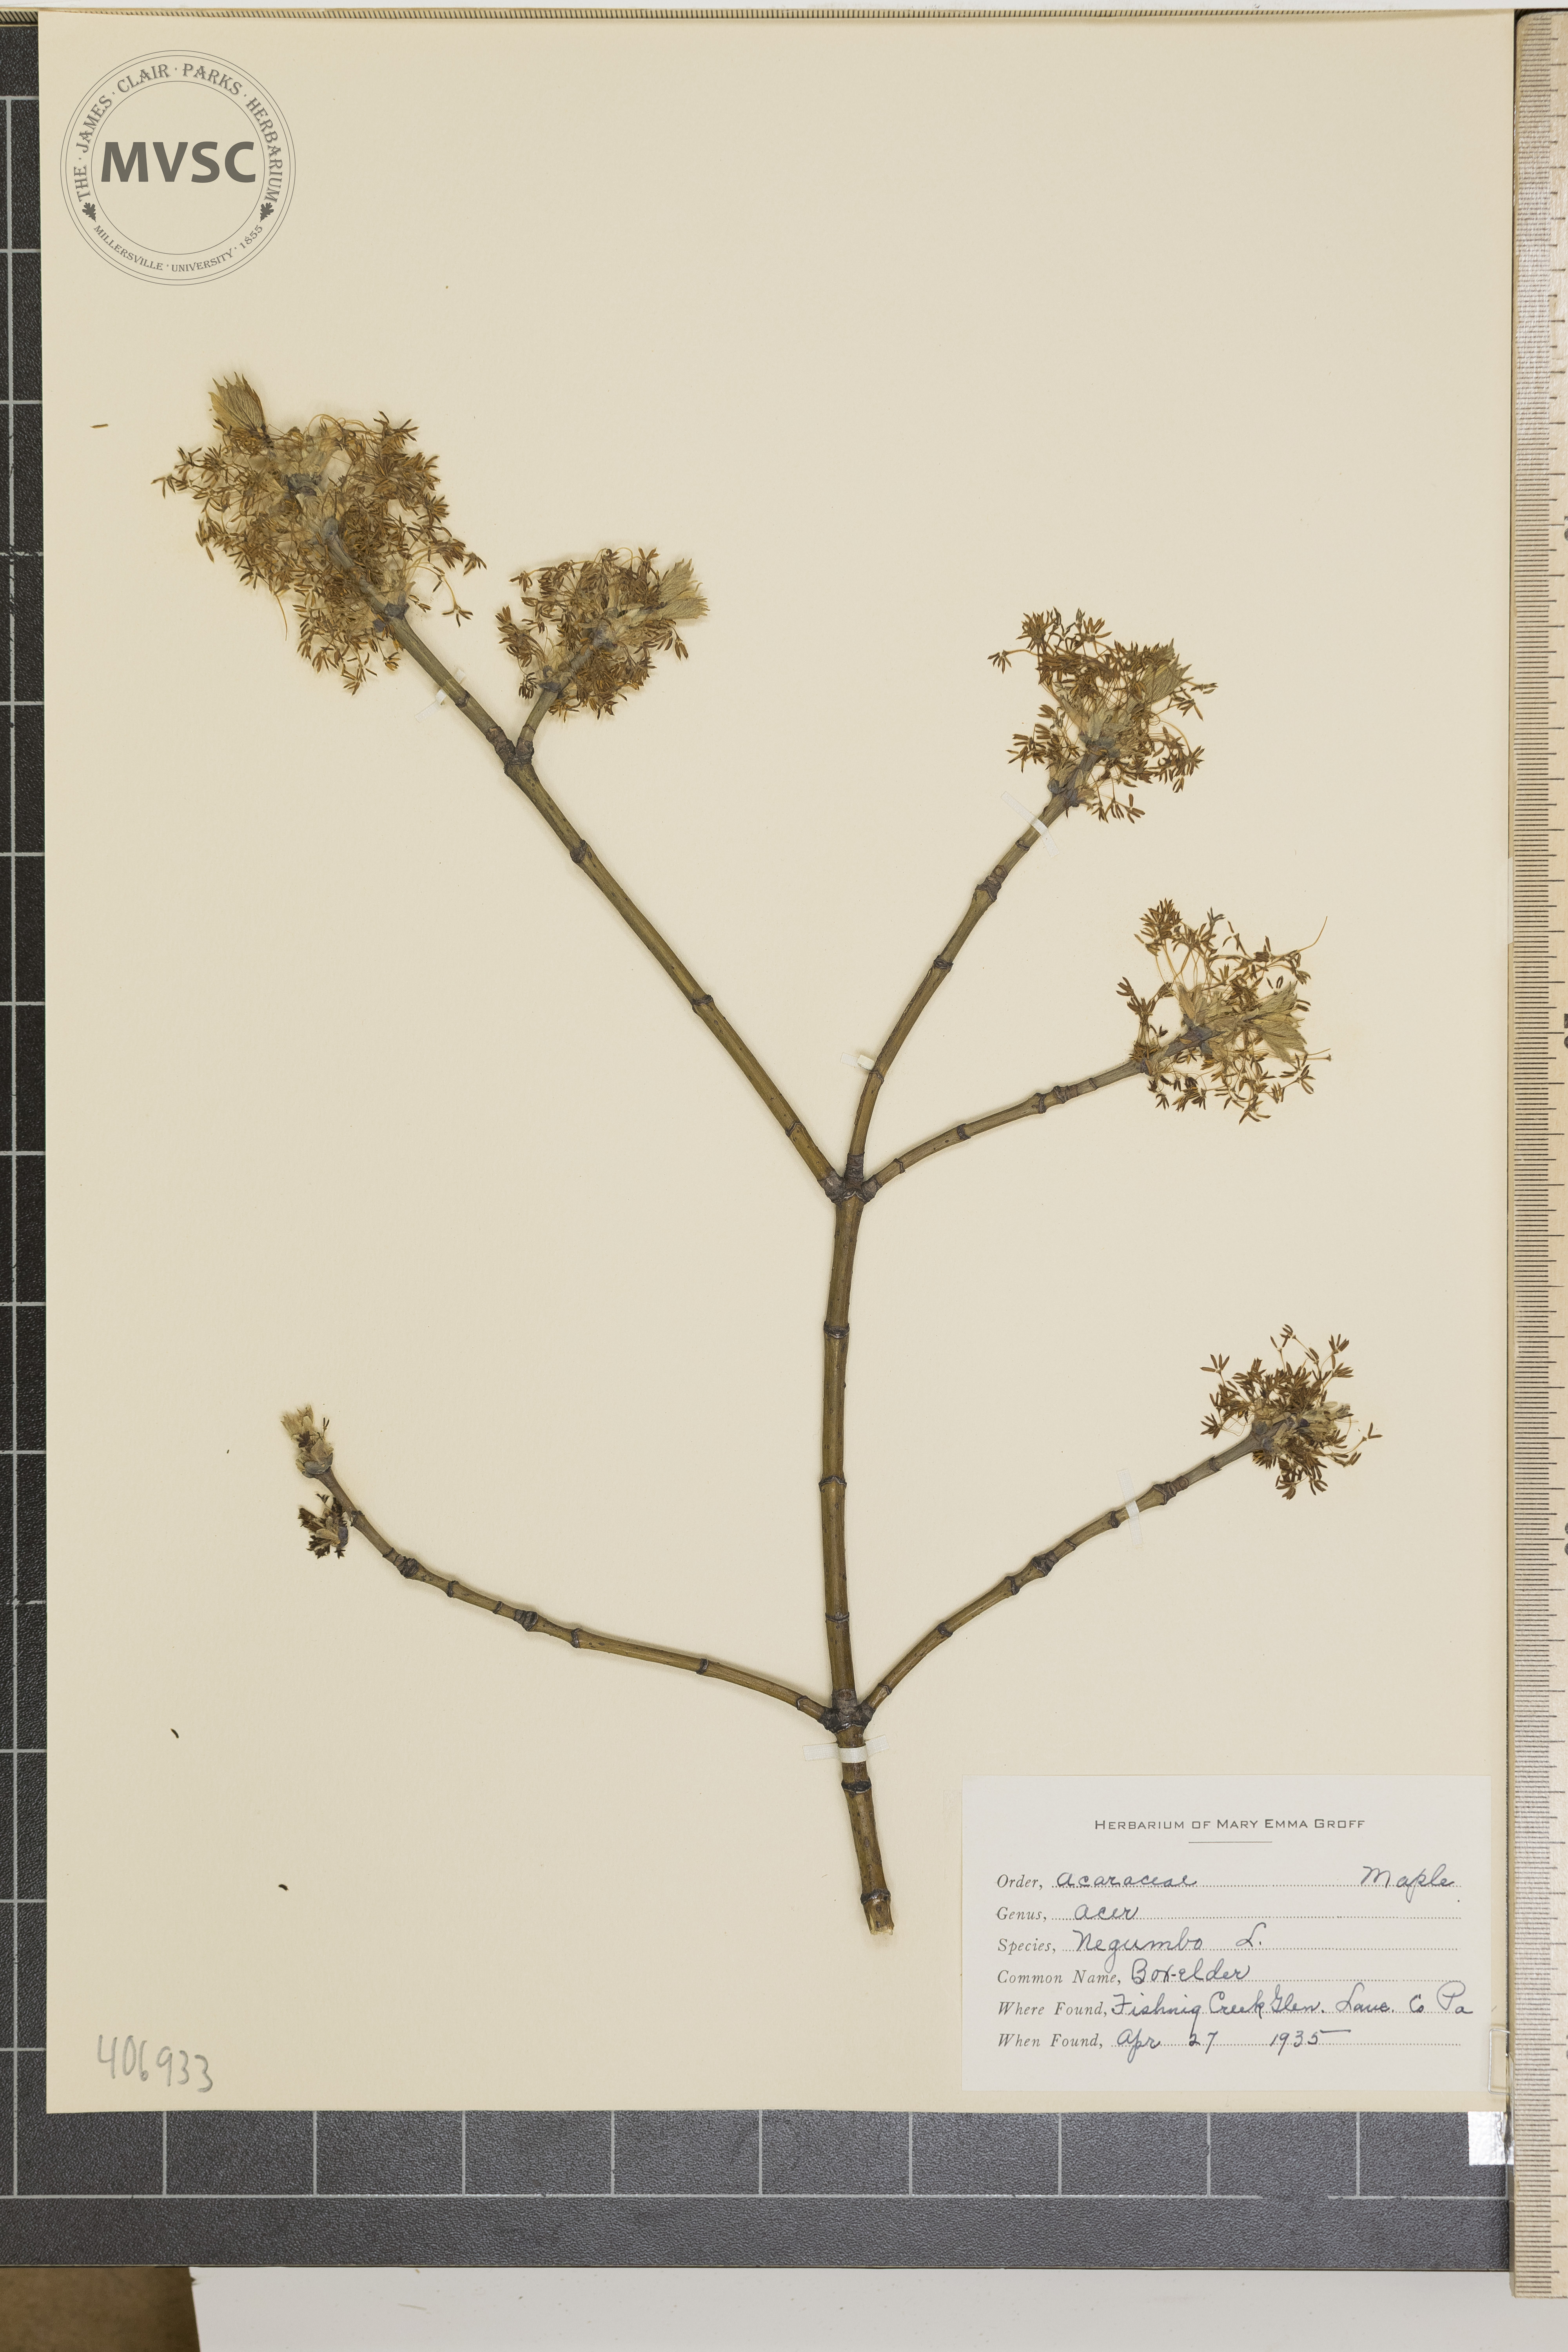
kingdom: Plantae
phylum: Tracheophyta
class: Magnoliopsida
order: Sapindales
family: Sapindaceae
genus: Acer
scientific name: Acer negundo
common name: Box-Elder
